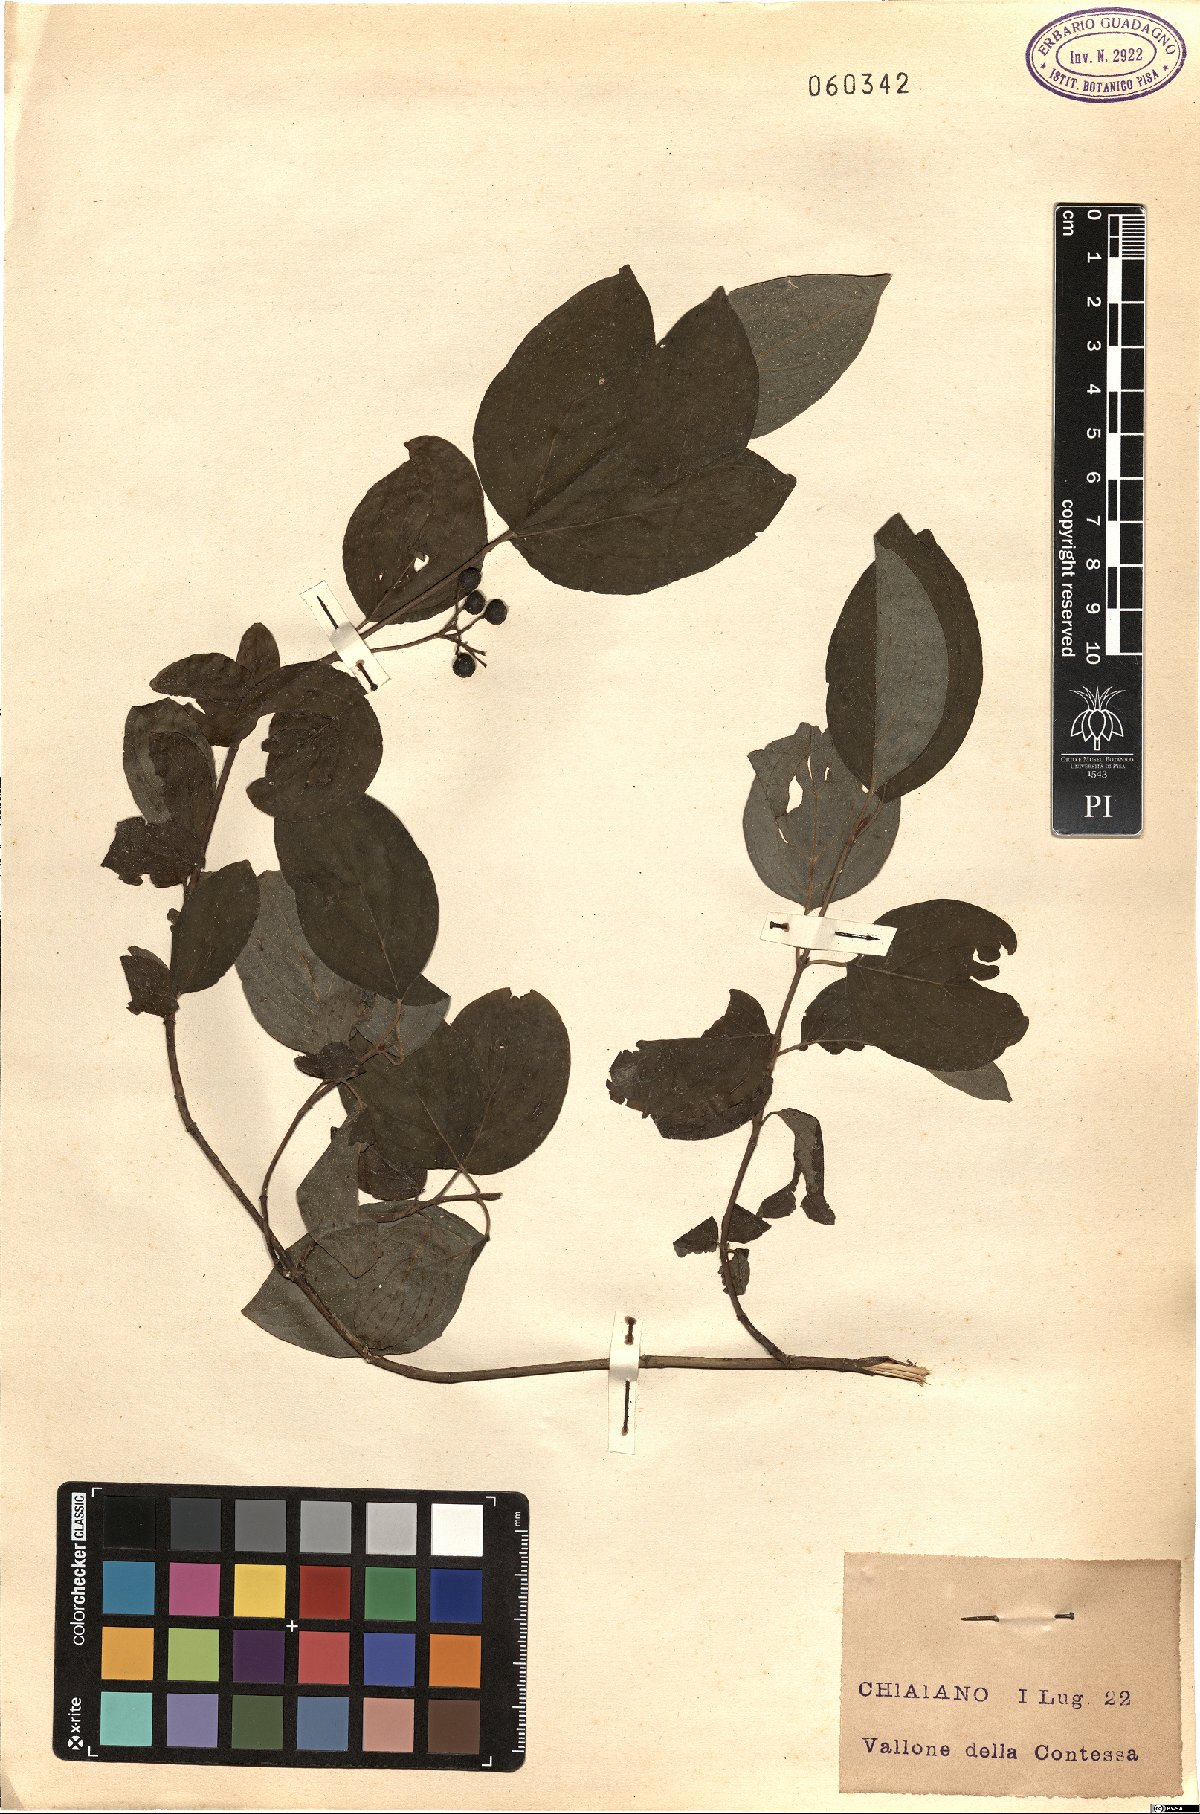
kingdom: Plantae
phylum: Tracheophyta
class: Magnoliopsida
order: Cornales
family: Cornaceae
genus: Cornus
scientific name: Cornus sanguinea
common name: Dogwood
